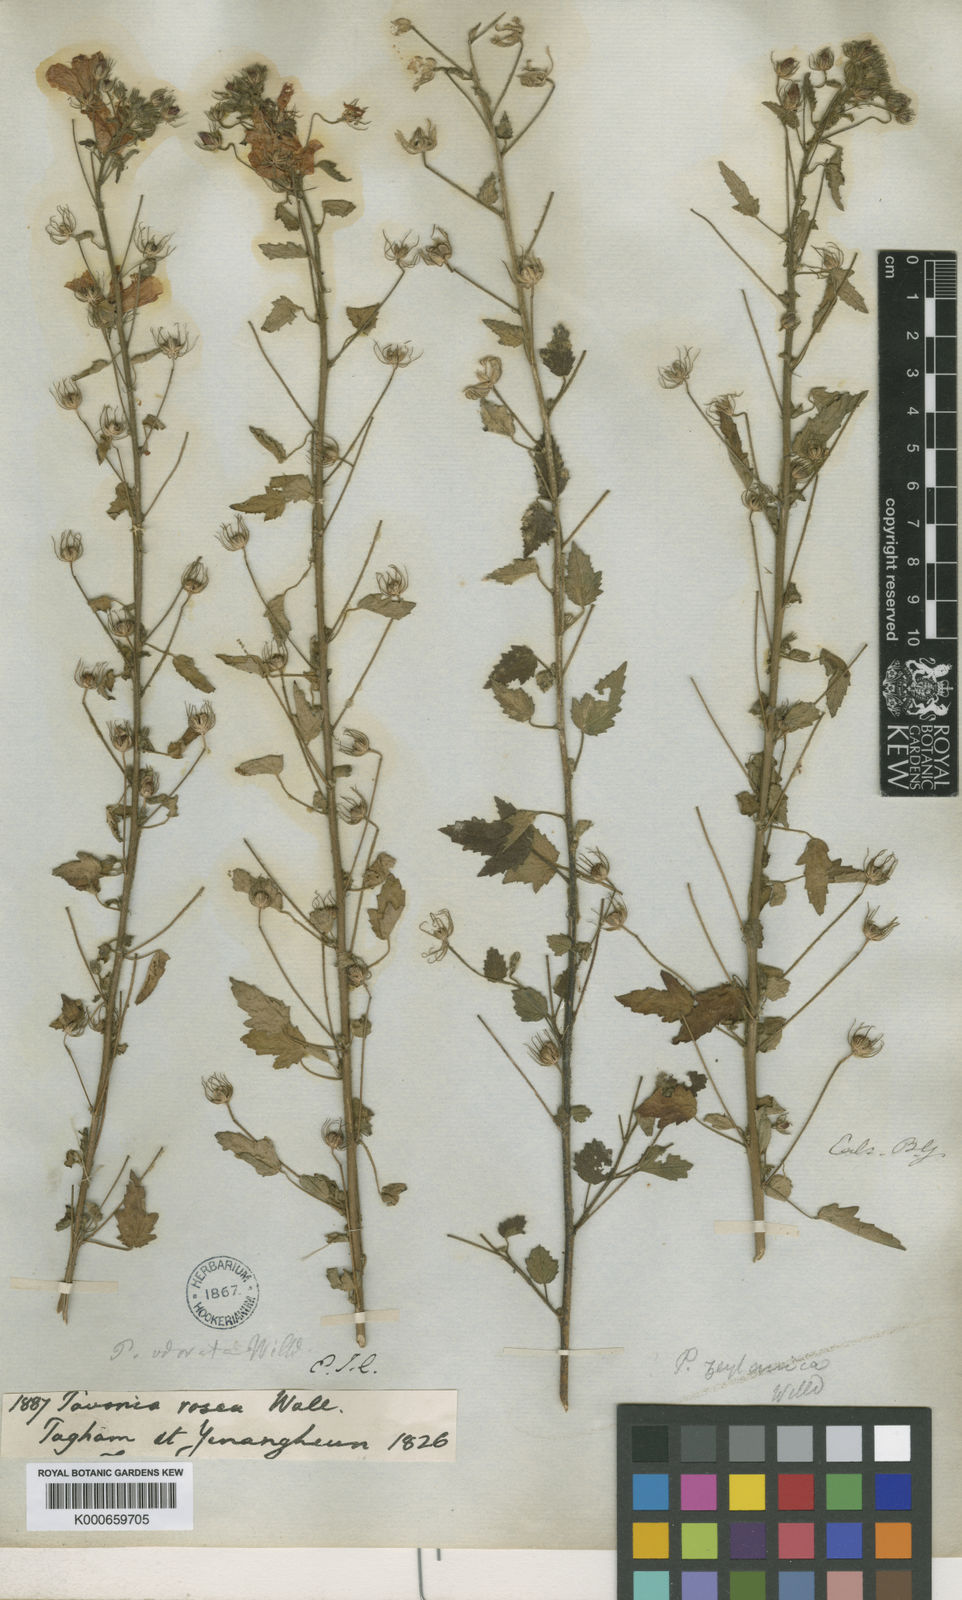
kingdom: Plantae
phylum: Tracheophyta
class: Magnoliopsida
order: Malvales
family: Malvaceae
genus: Pavonia
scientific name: Pavonia zeylonica
